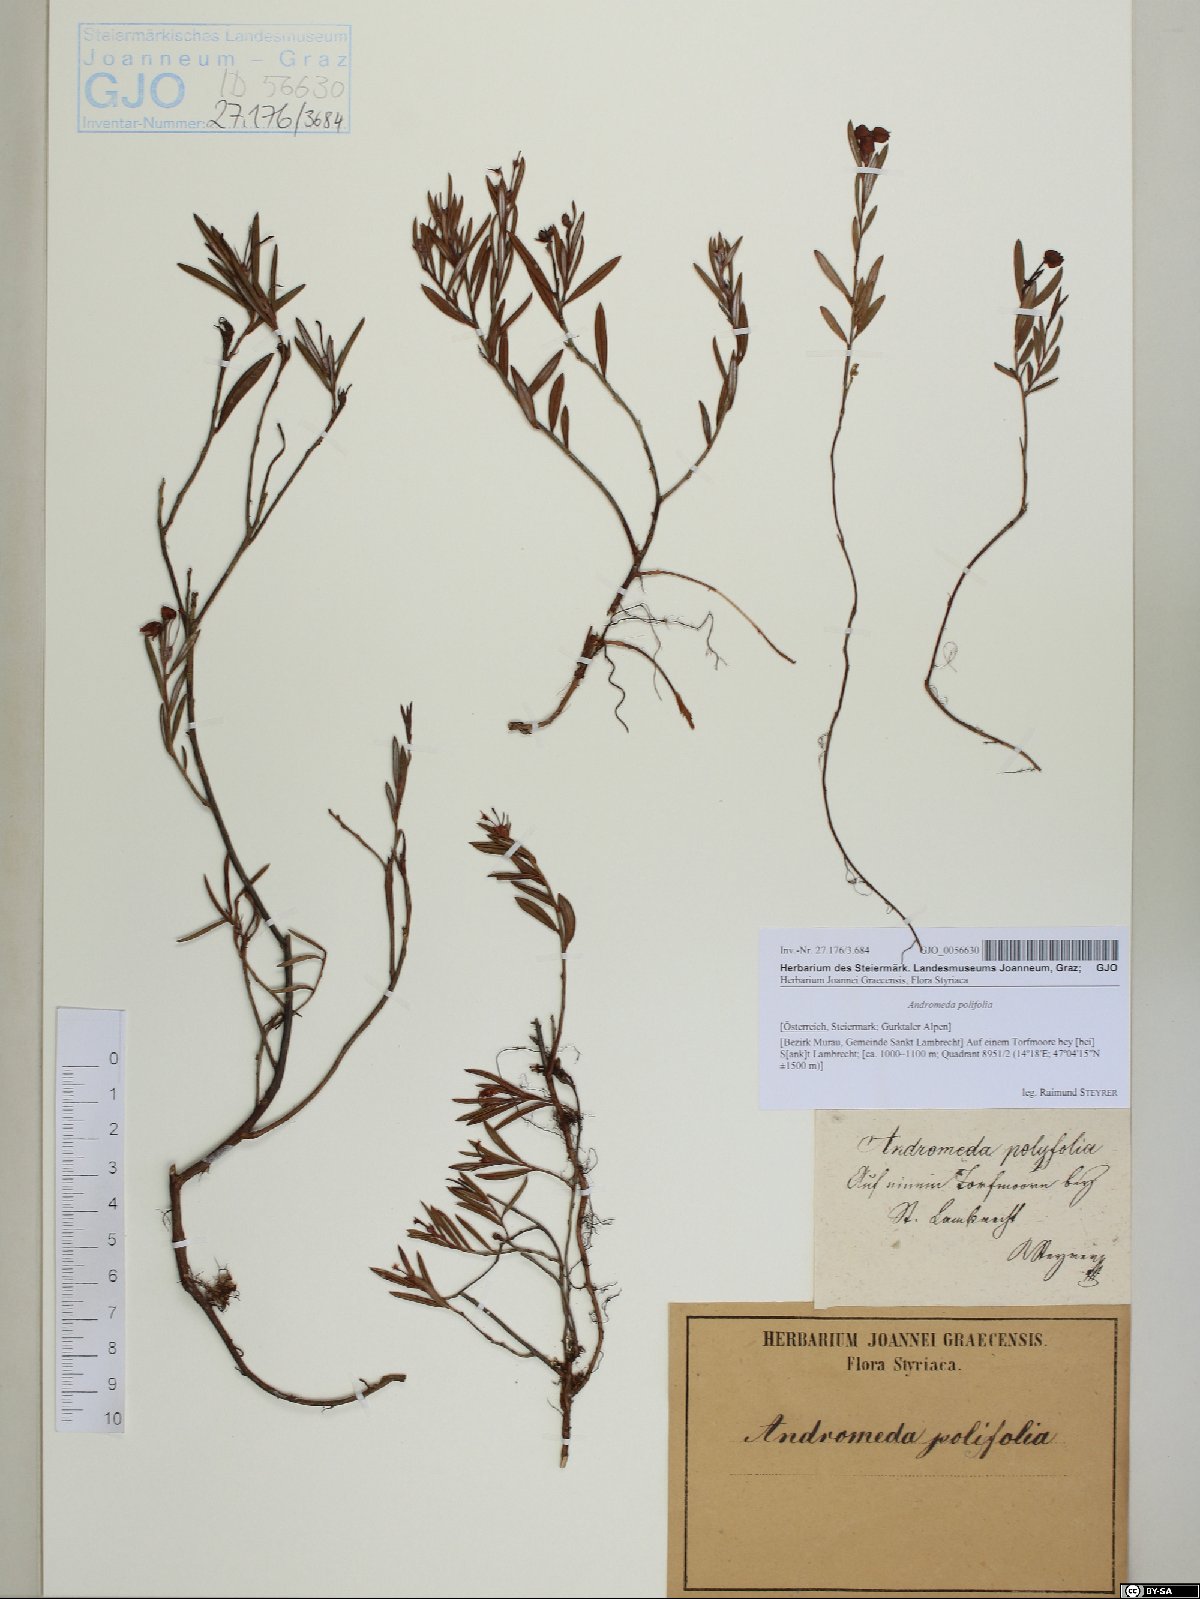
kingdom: Plantae
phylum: Tracheophyta
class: Magnoliopsida
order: Ericales
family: Ericaceae
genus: Andromeda
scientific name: Andromeda polifolia
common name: Bog-rosemary
